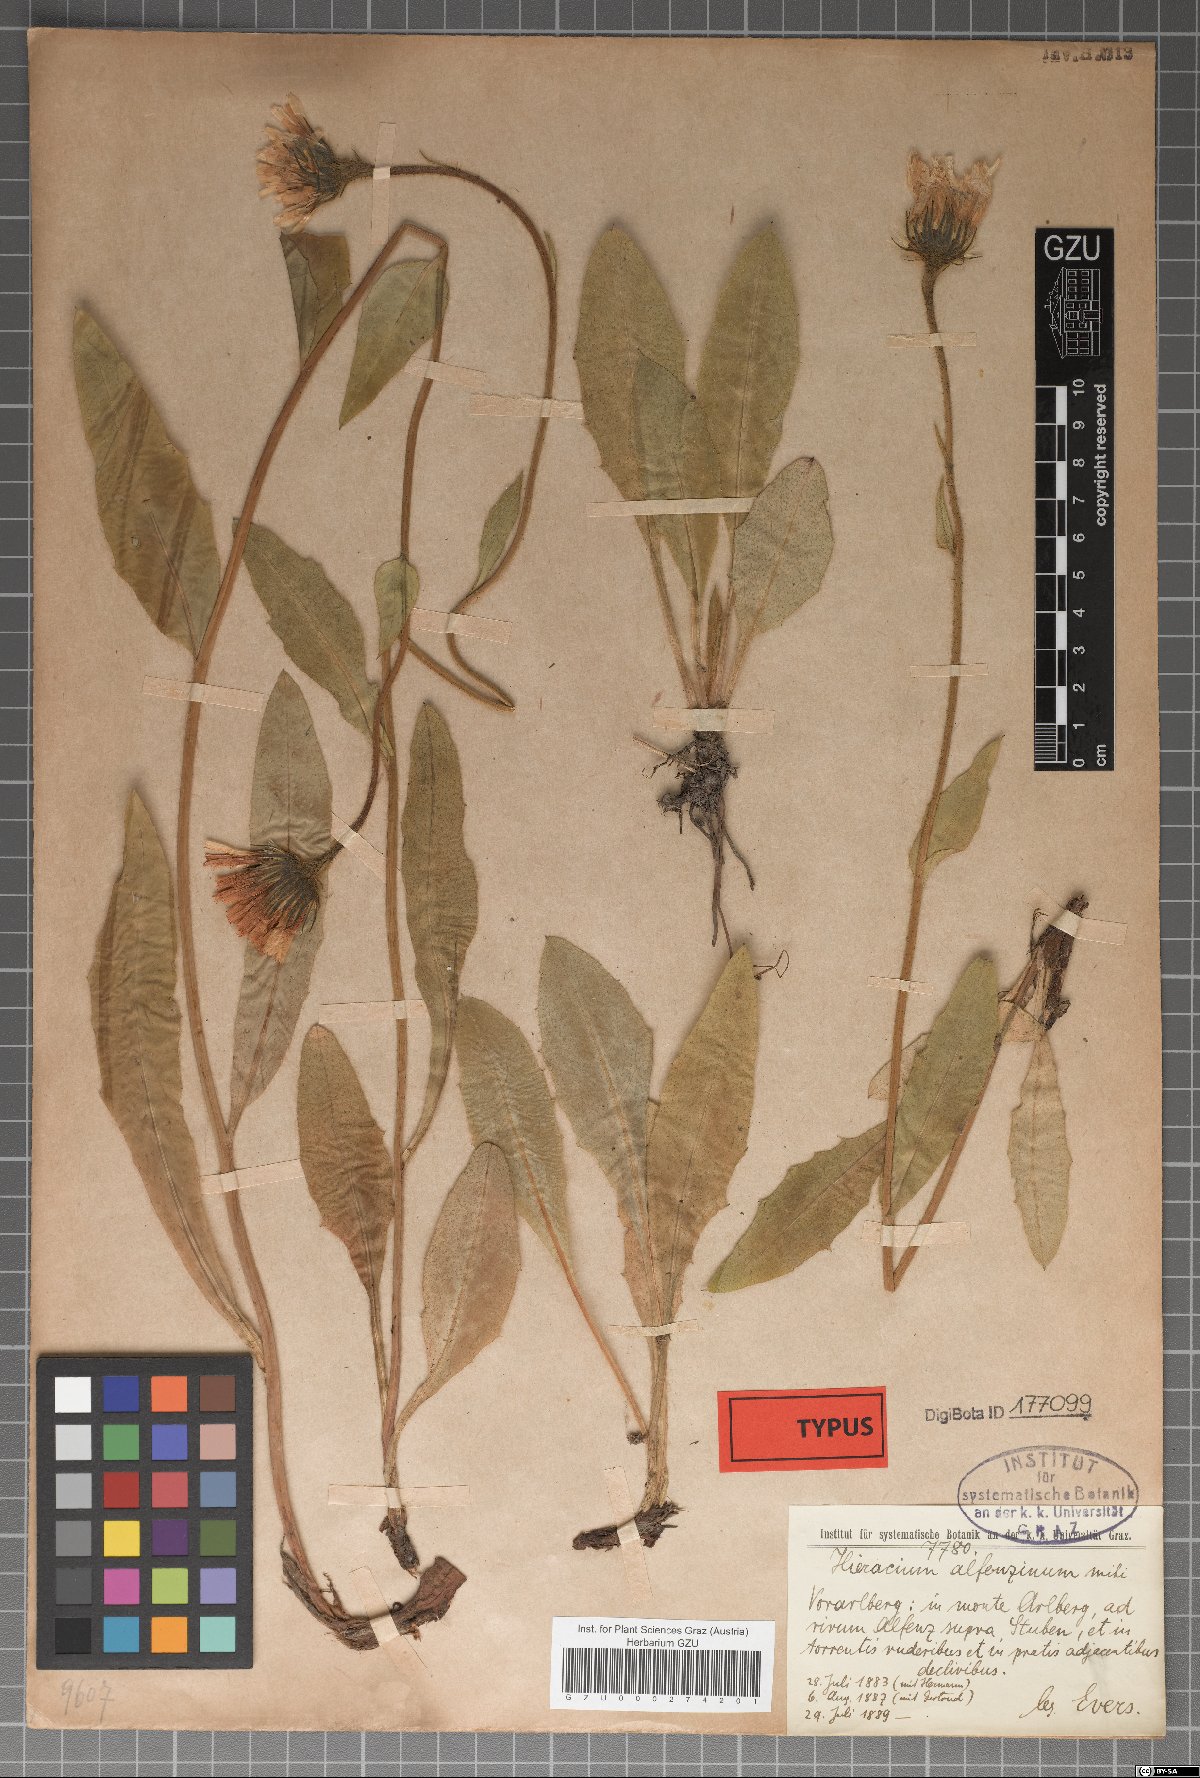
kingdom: Plantae
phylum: Tracheophyta
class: Magnoliopsida
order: Asterales
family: Asteraceae
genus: Hieracium
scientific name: Hieracium porrectum
